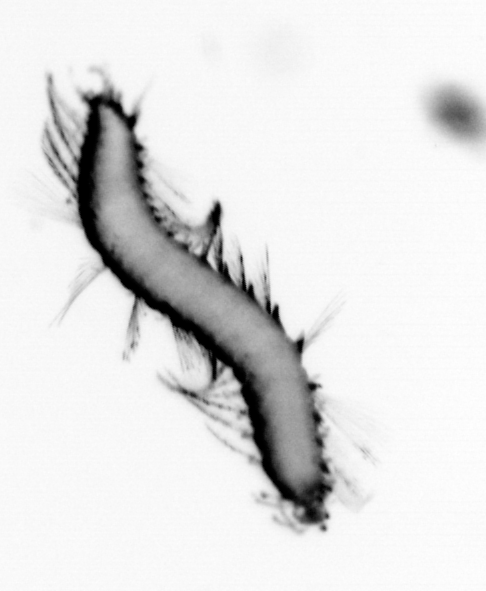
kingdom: Animalia
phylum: Annelida
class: Polychaeta
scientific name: Polychaeta
